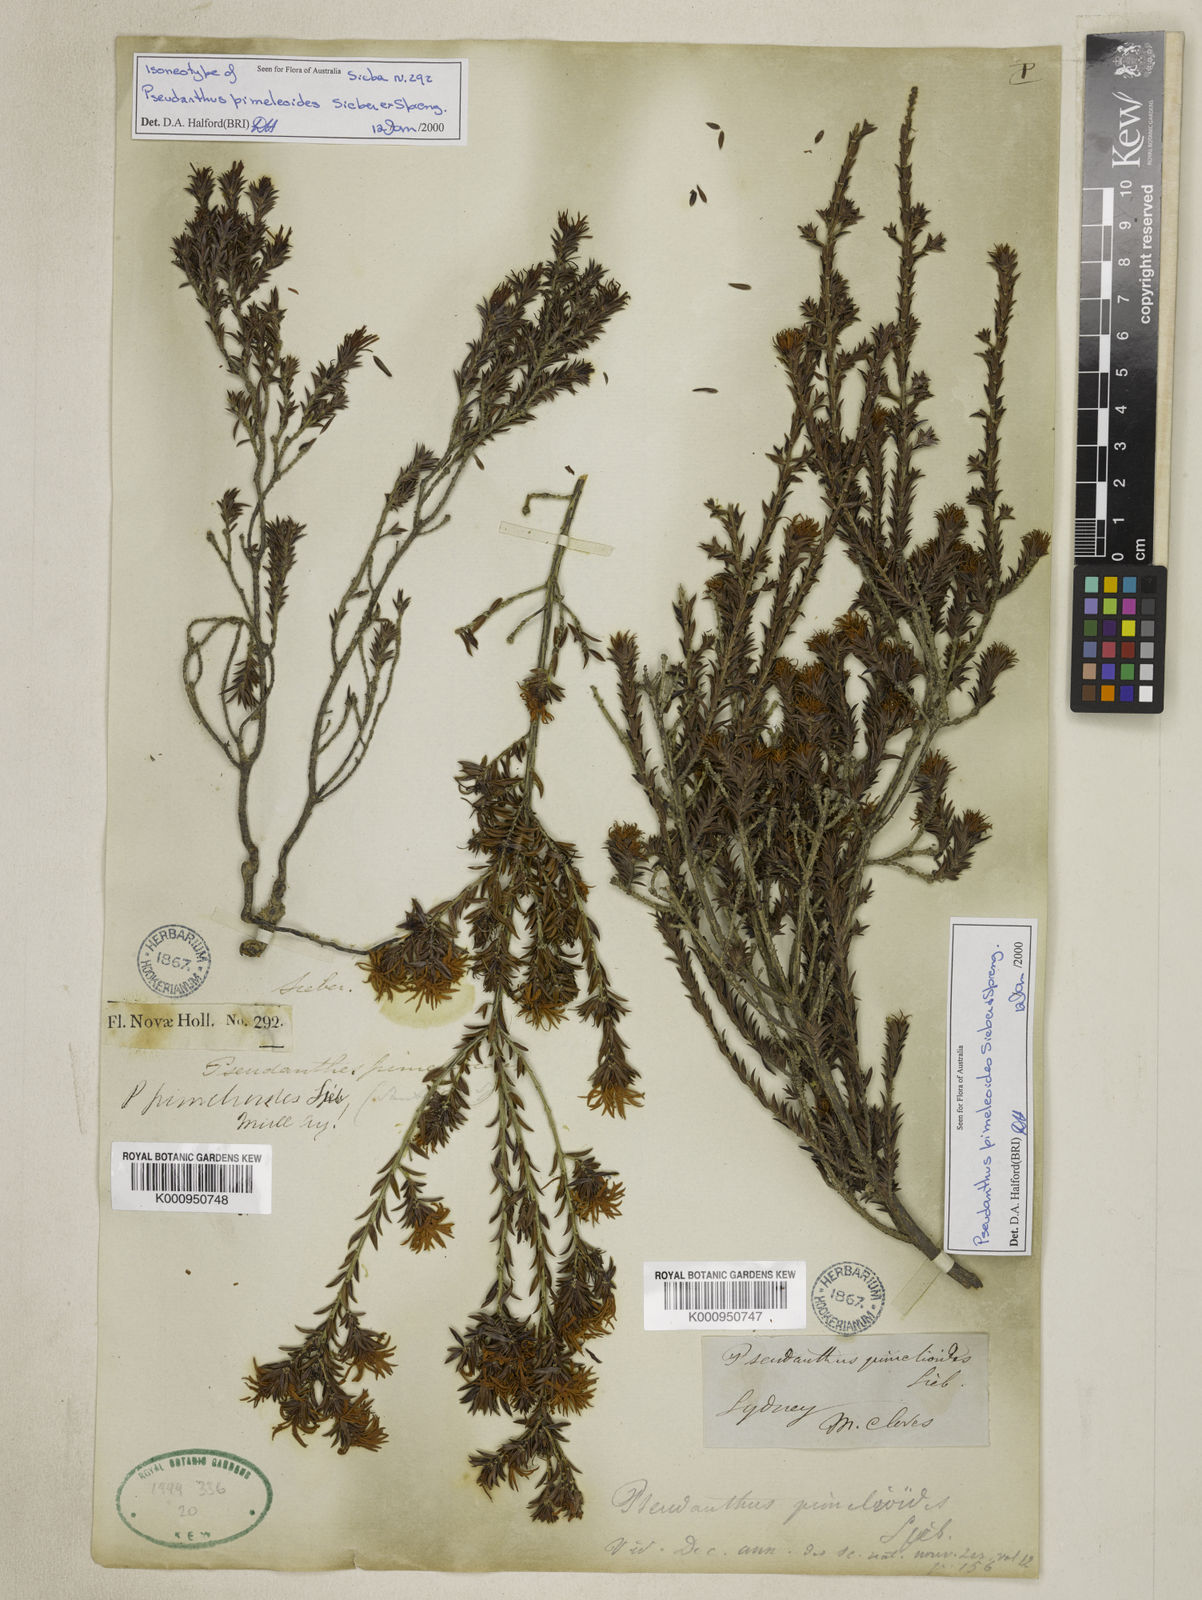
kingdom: Plantae
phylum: Tracheophyta
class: Magnoliopsida
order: Malpighiales
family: Picrodendraceae
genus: Pseudanthus
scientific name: Pseudanthus pimeleoides
